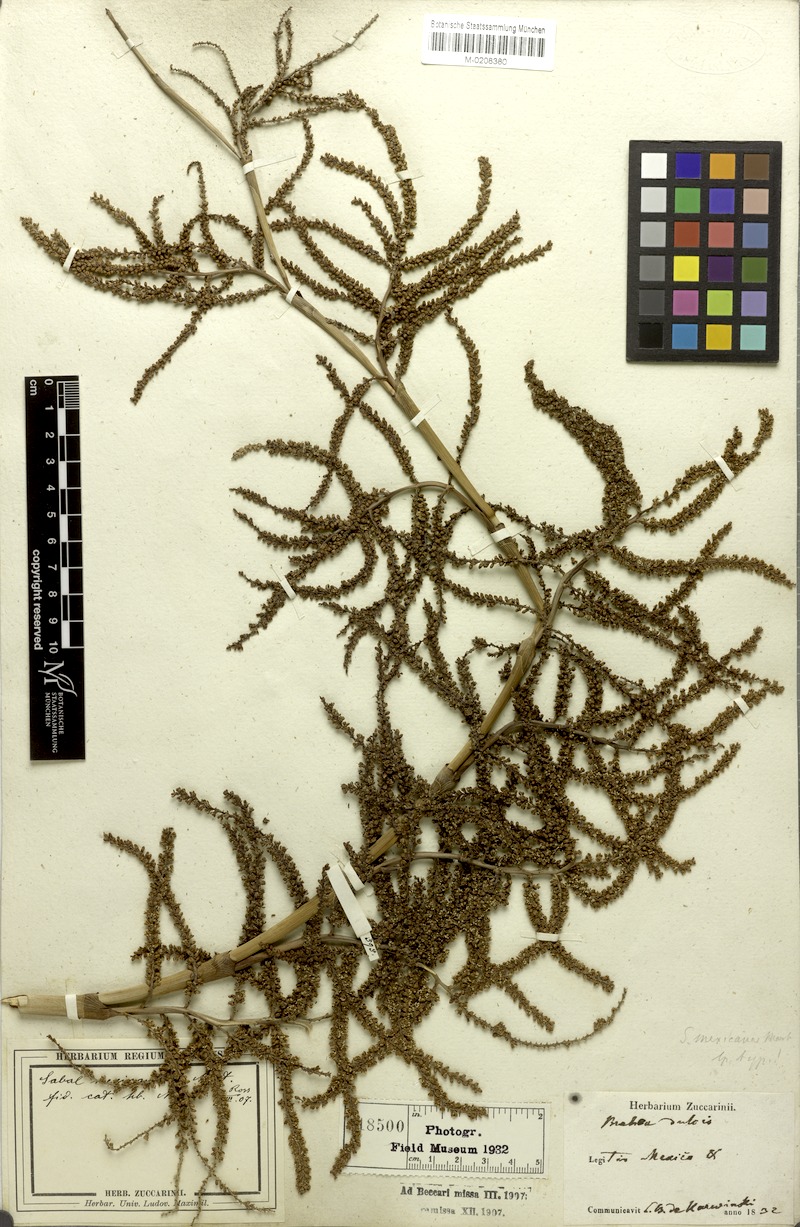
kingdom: Plantae
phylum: Tracheophyta
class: Liliopsida
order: Arecales
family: Arecaceae
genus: Sabal
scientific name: Sabal mexicana
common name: Texas palmetto
